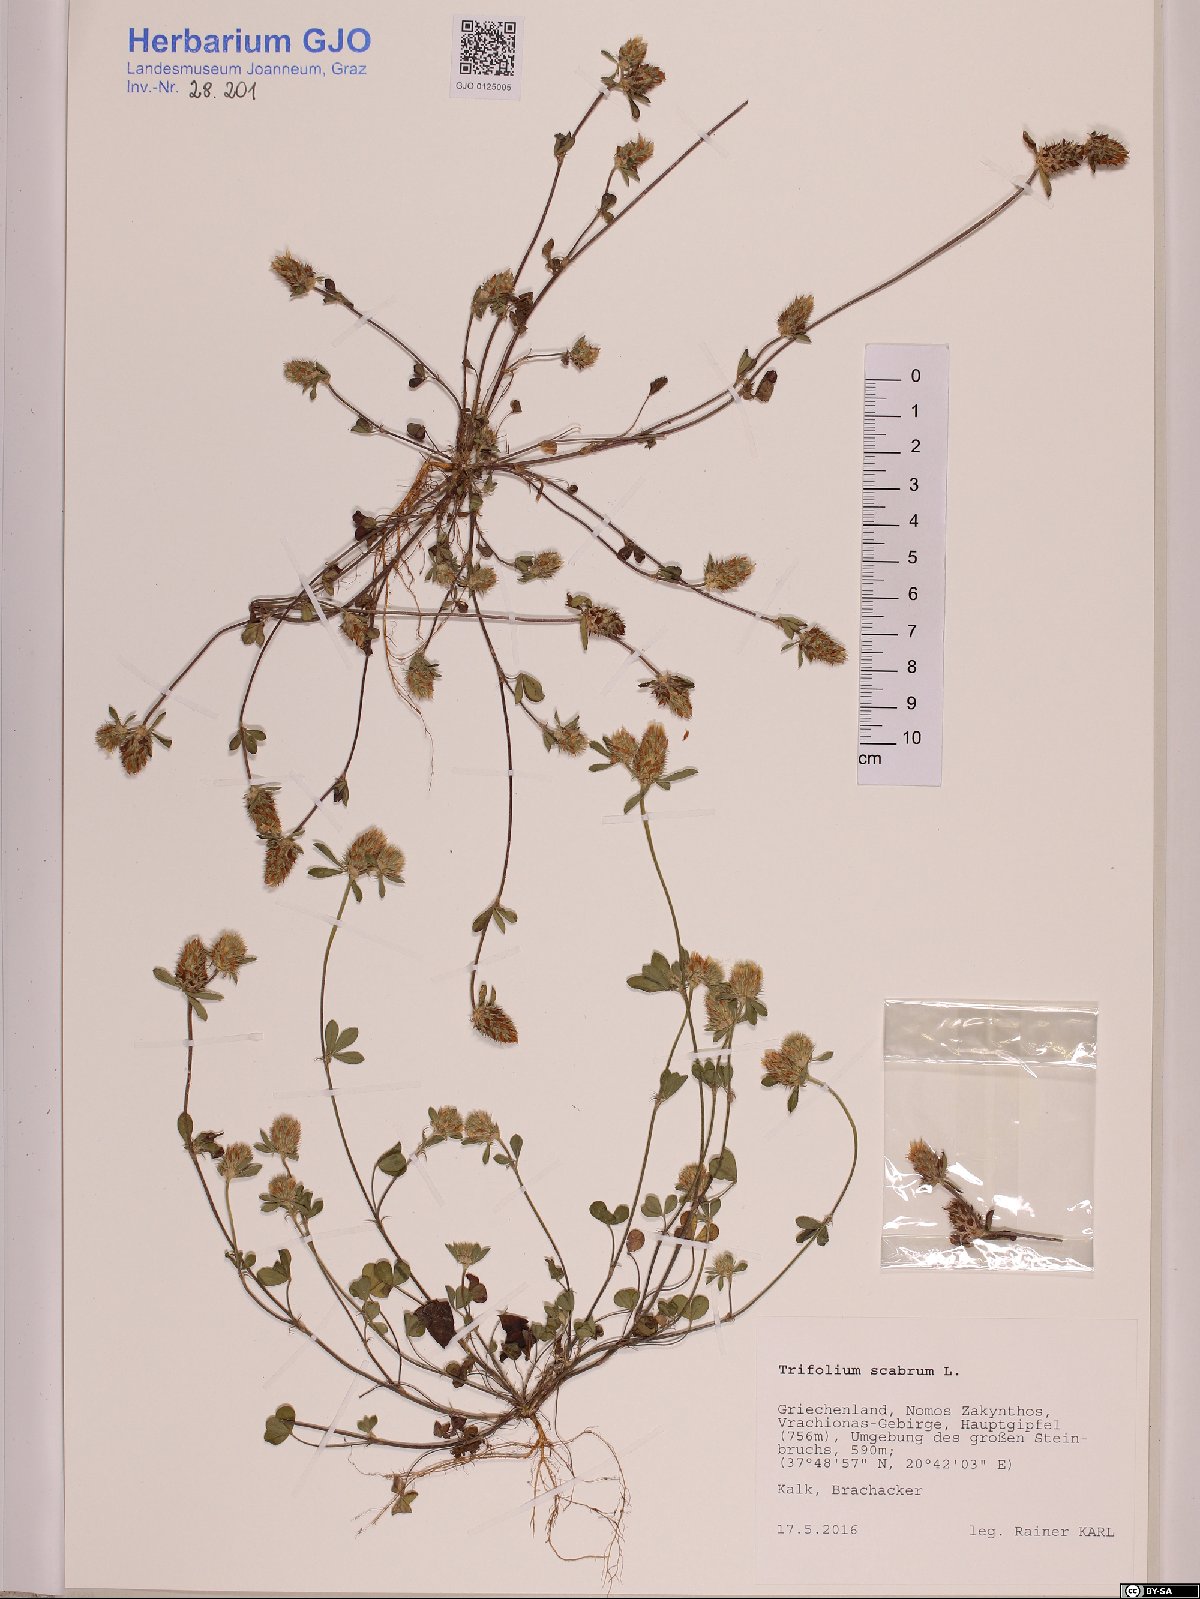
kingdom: Plantae
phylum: Tracheophyta
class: Magnoliopsida
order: Fabales
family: Fabaceae
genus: Trifolium
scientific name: Trifolium scabrum
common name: Rough clover
